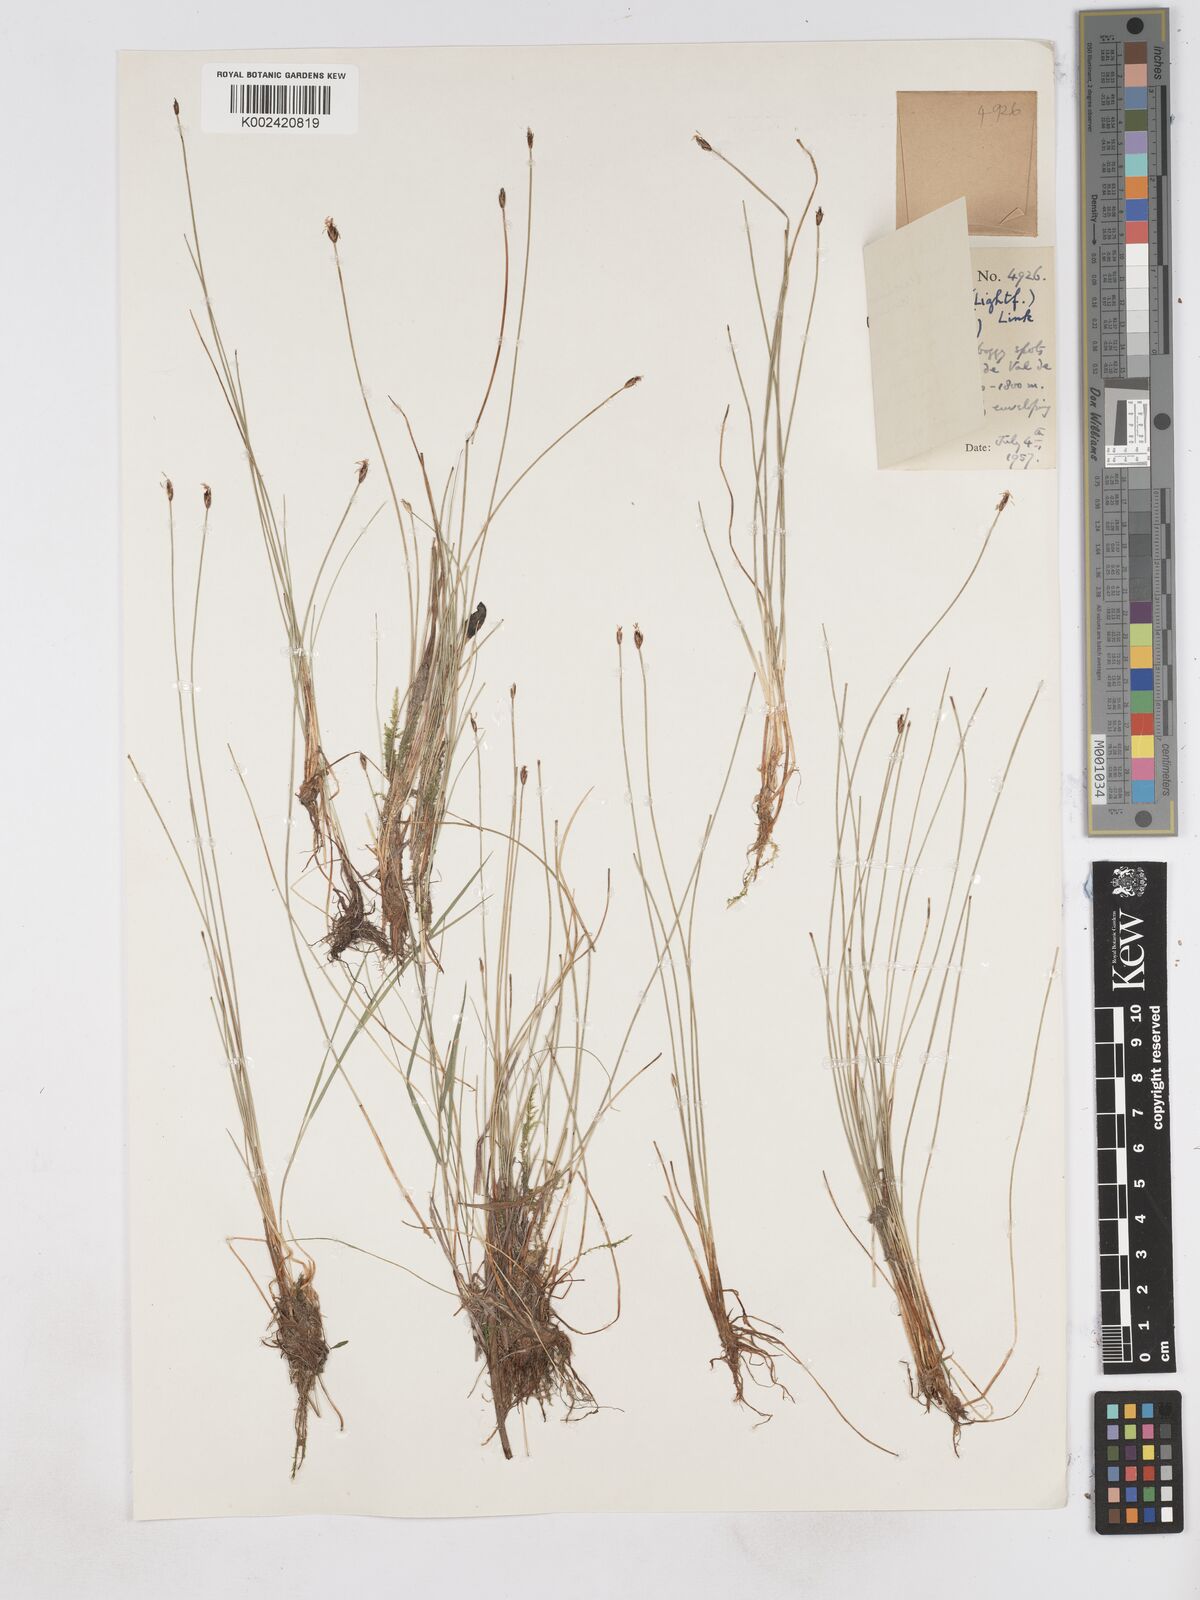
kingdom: Plantae
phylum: Tracheophyta
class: Liliopsida
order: Poales
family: Cyperaceae
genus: Eleocharis
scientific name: Eleocharis quinqueflora
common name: Few-flowered spike-rush
